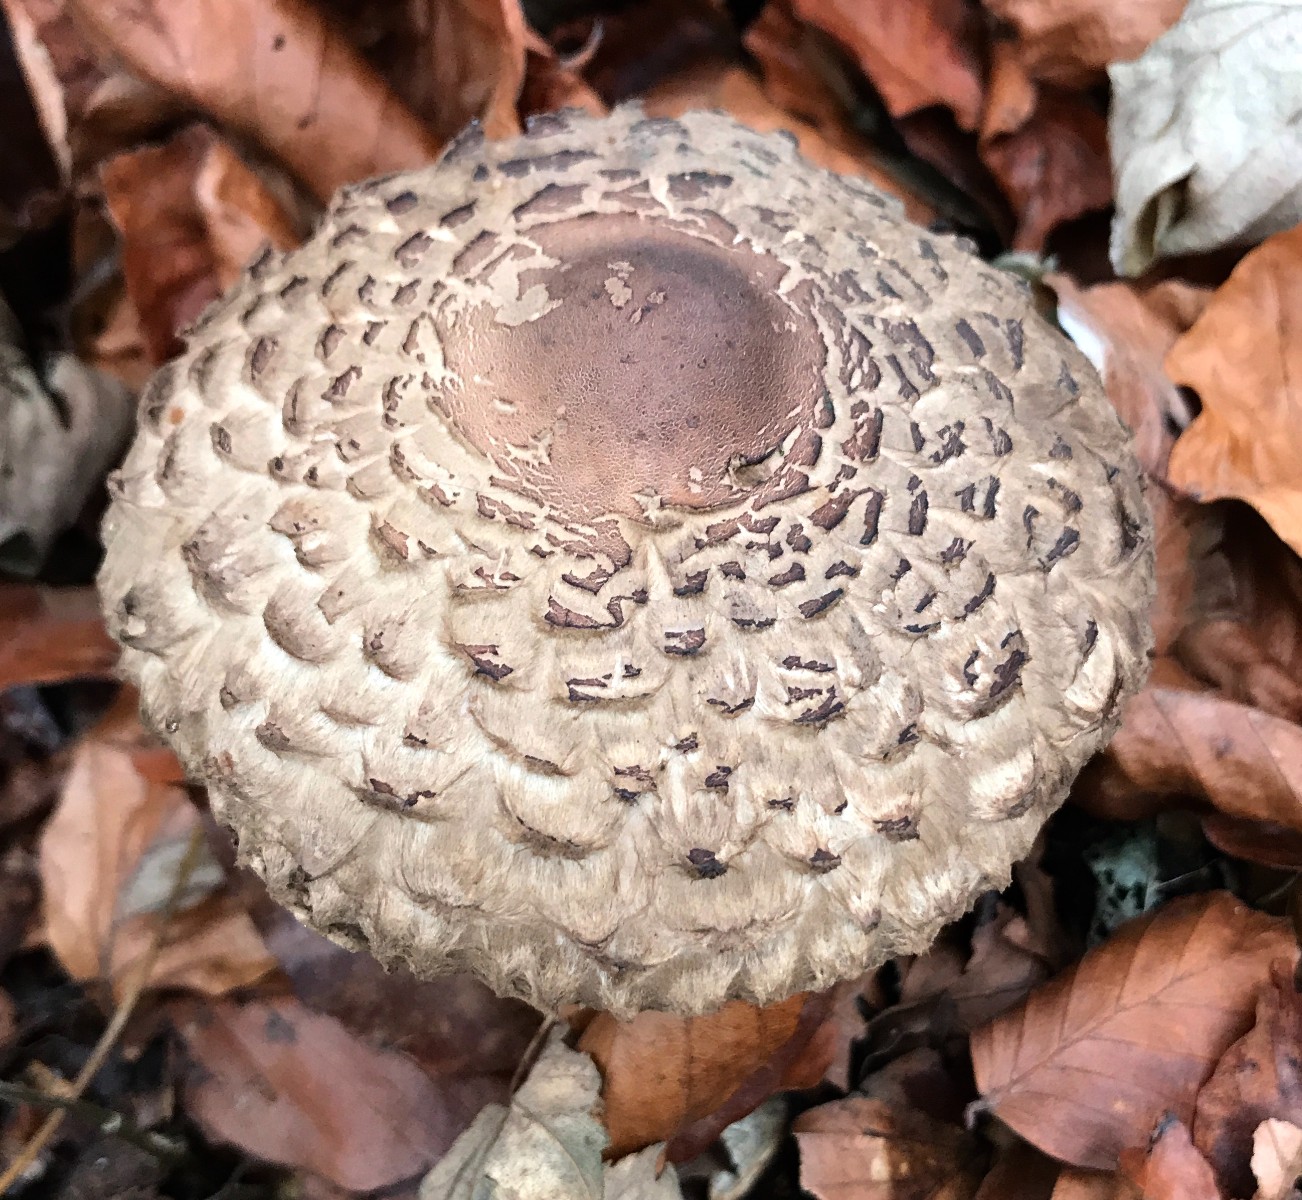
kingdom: Fungi
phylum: Basidiomycota
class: Agaricomycetes
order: Agaricales
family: Agaricaceae
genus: Chlorophyllum
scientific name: Chlorophyllum olivieri
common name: almindelig rabarberhat
